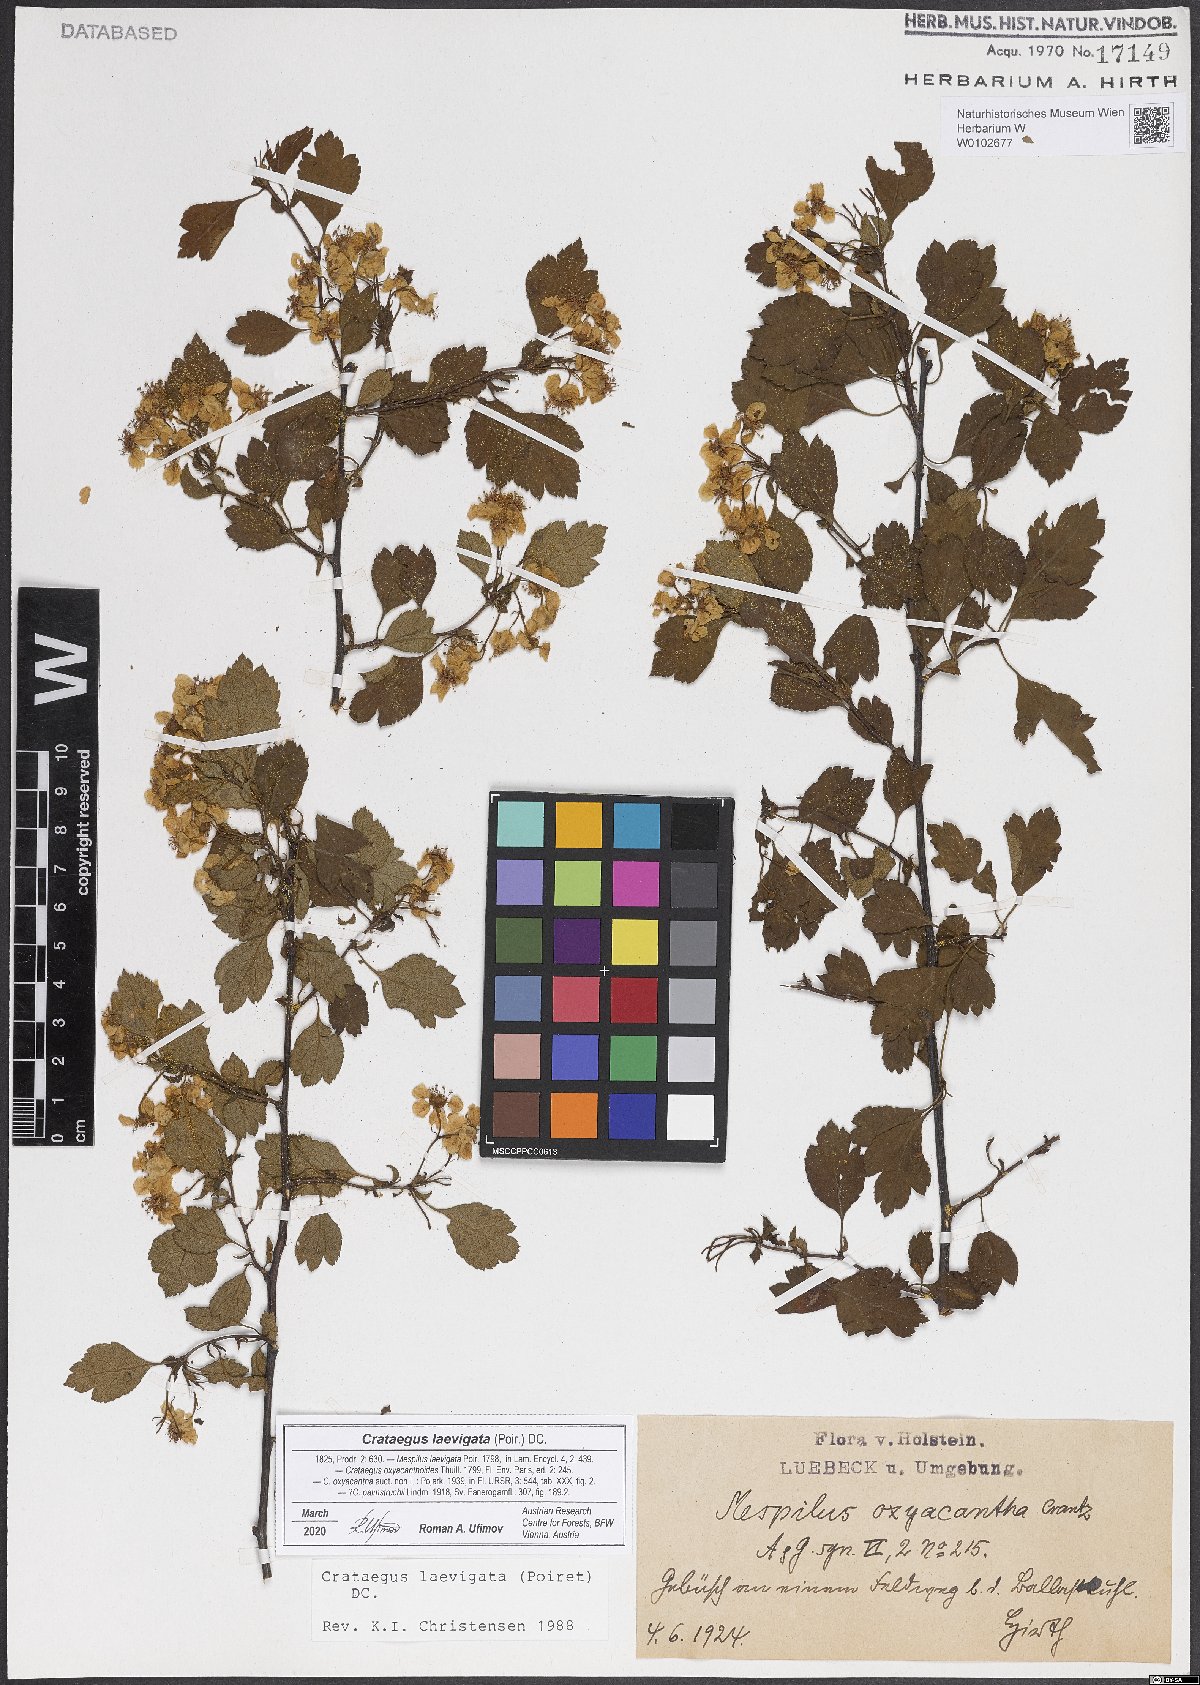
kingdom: Plantae
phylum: Tracheophyta
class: Magnoliopsida
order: Rosales
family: Rosaceae
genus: Crataegus
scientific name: Crataegus laevigata
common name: Midland hawthorn
